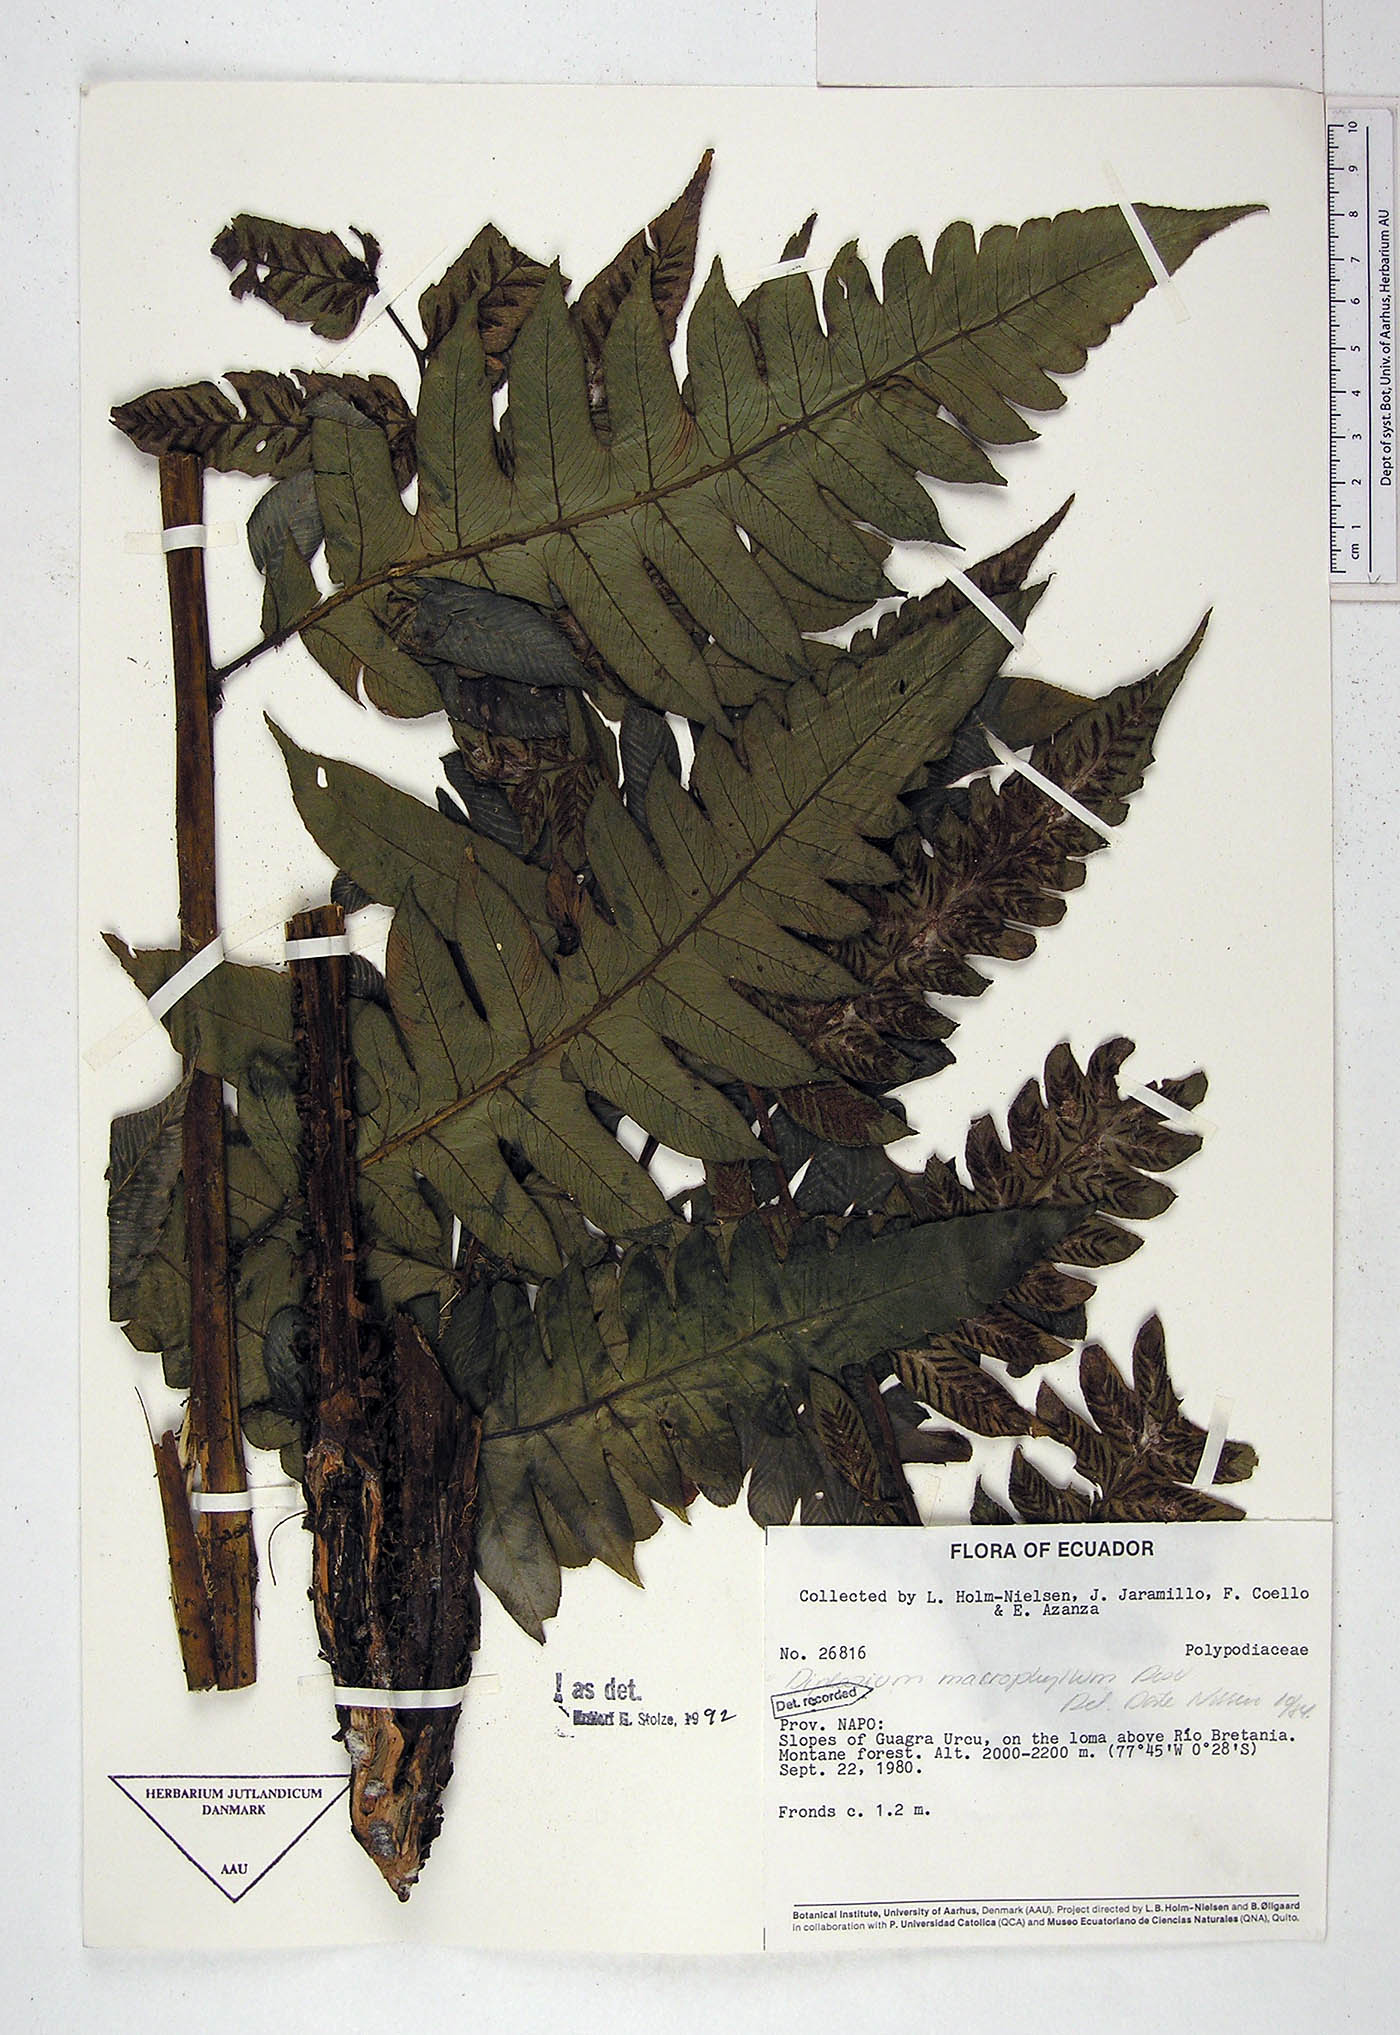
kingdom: Plantae
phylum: Tracheophyta
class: Polypodiopsida
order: Polypodiales
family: Athyriaceae
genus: Diplazium
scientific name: Diplazium macrophyllum
